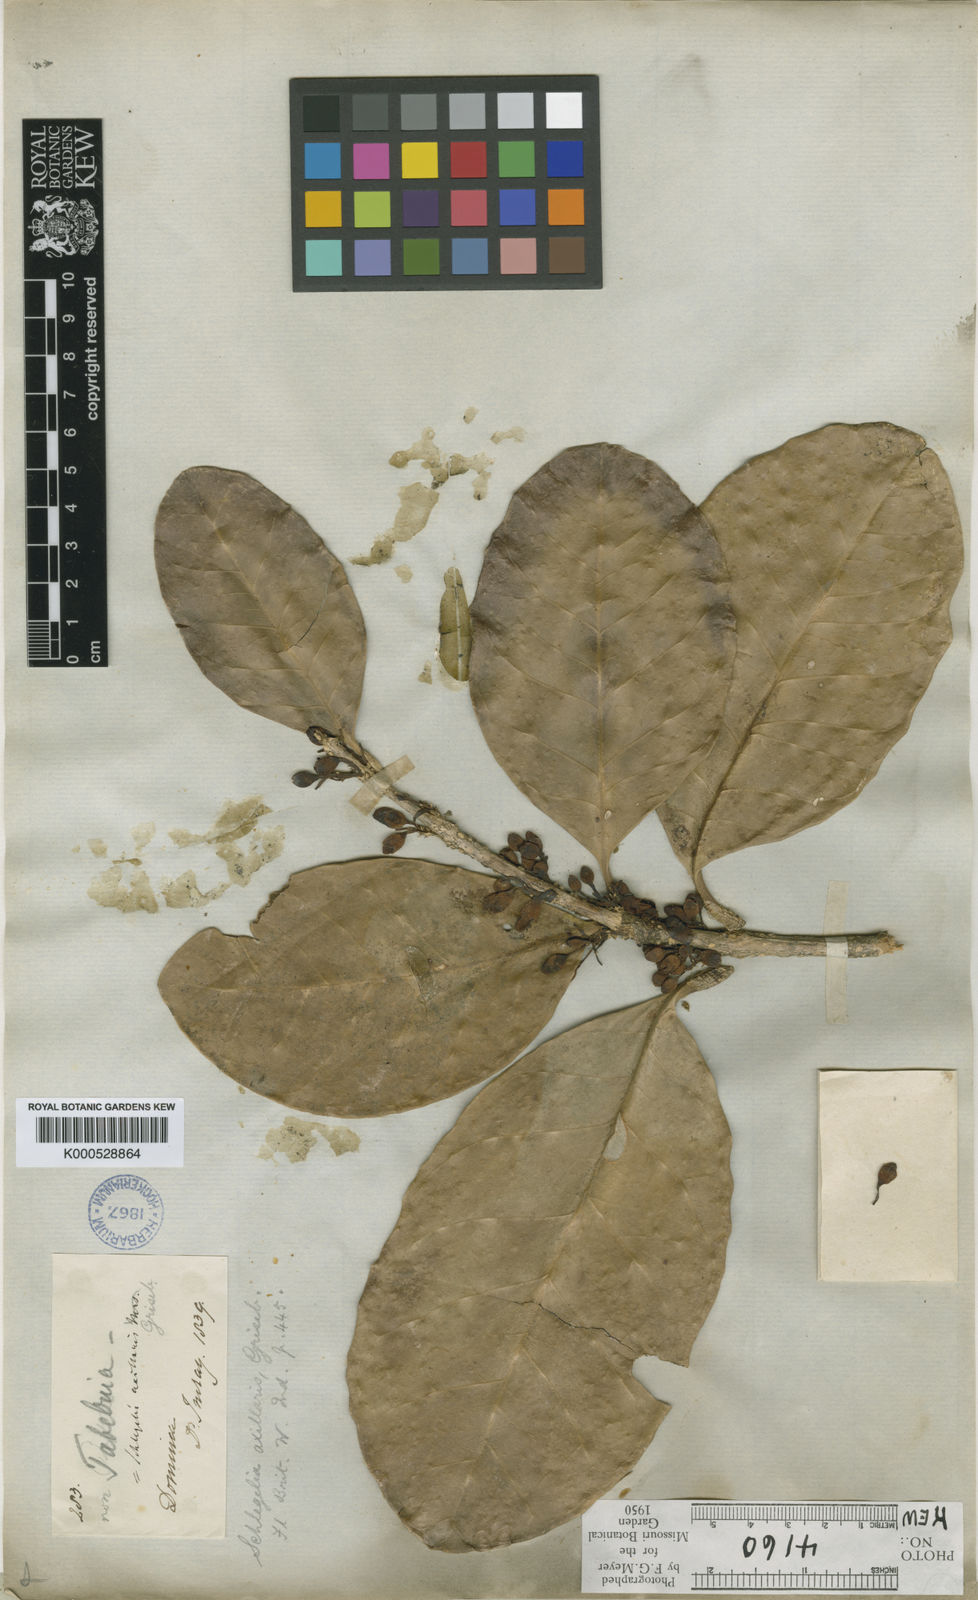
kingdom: Plantae
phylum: Tracheophyta
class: Magnoliopsida
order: Lamiales
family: Schlegeliaceae
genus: Schlegelia
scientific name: Schlegelia axillaris
